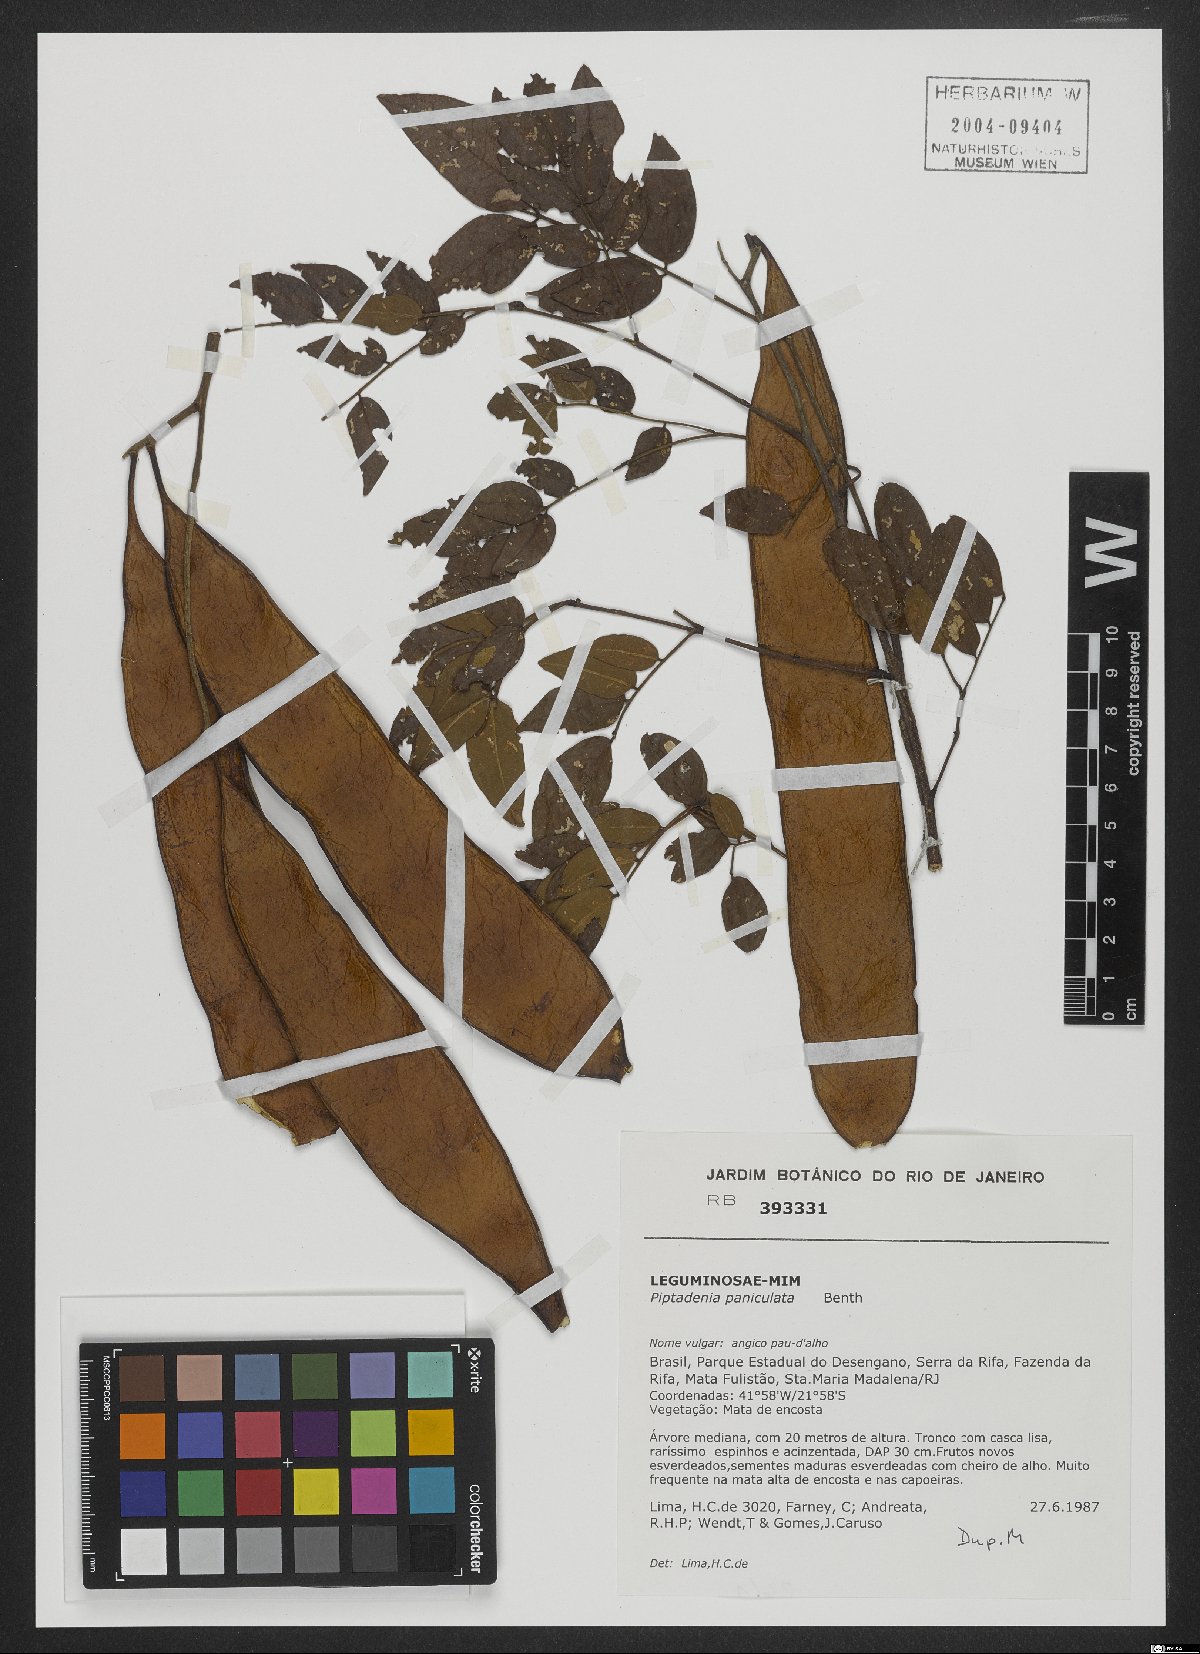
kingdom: Plantae
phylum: Tracheophyta
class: Magnoliopsida
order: Fabales
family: Fabaceae
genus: Piptadenia
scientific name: Piptadenia paniculata
